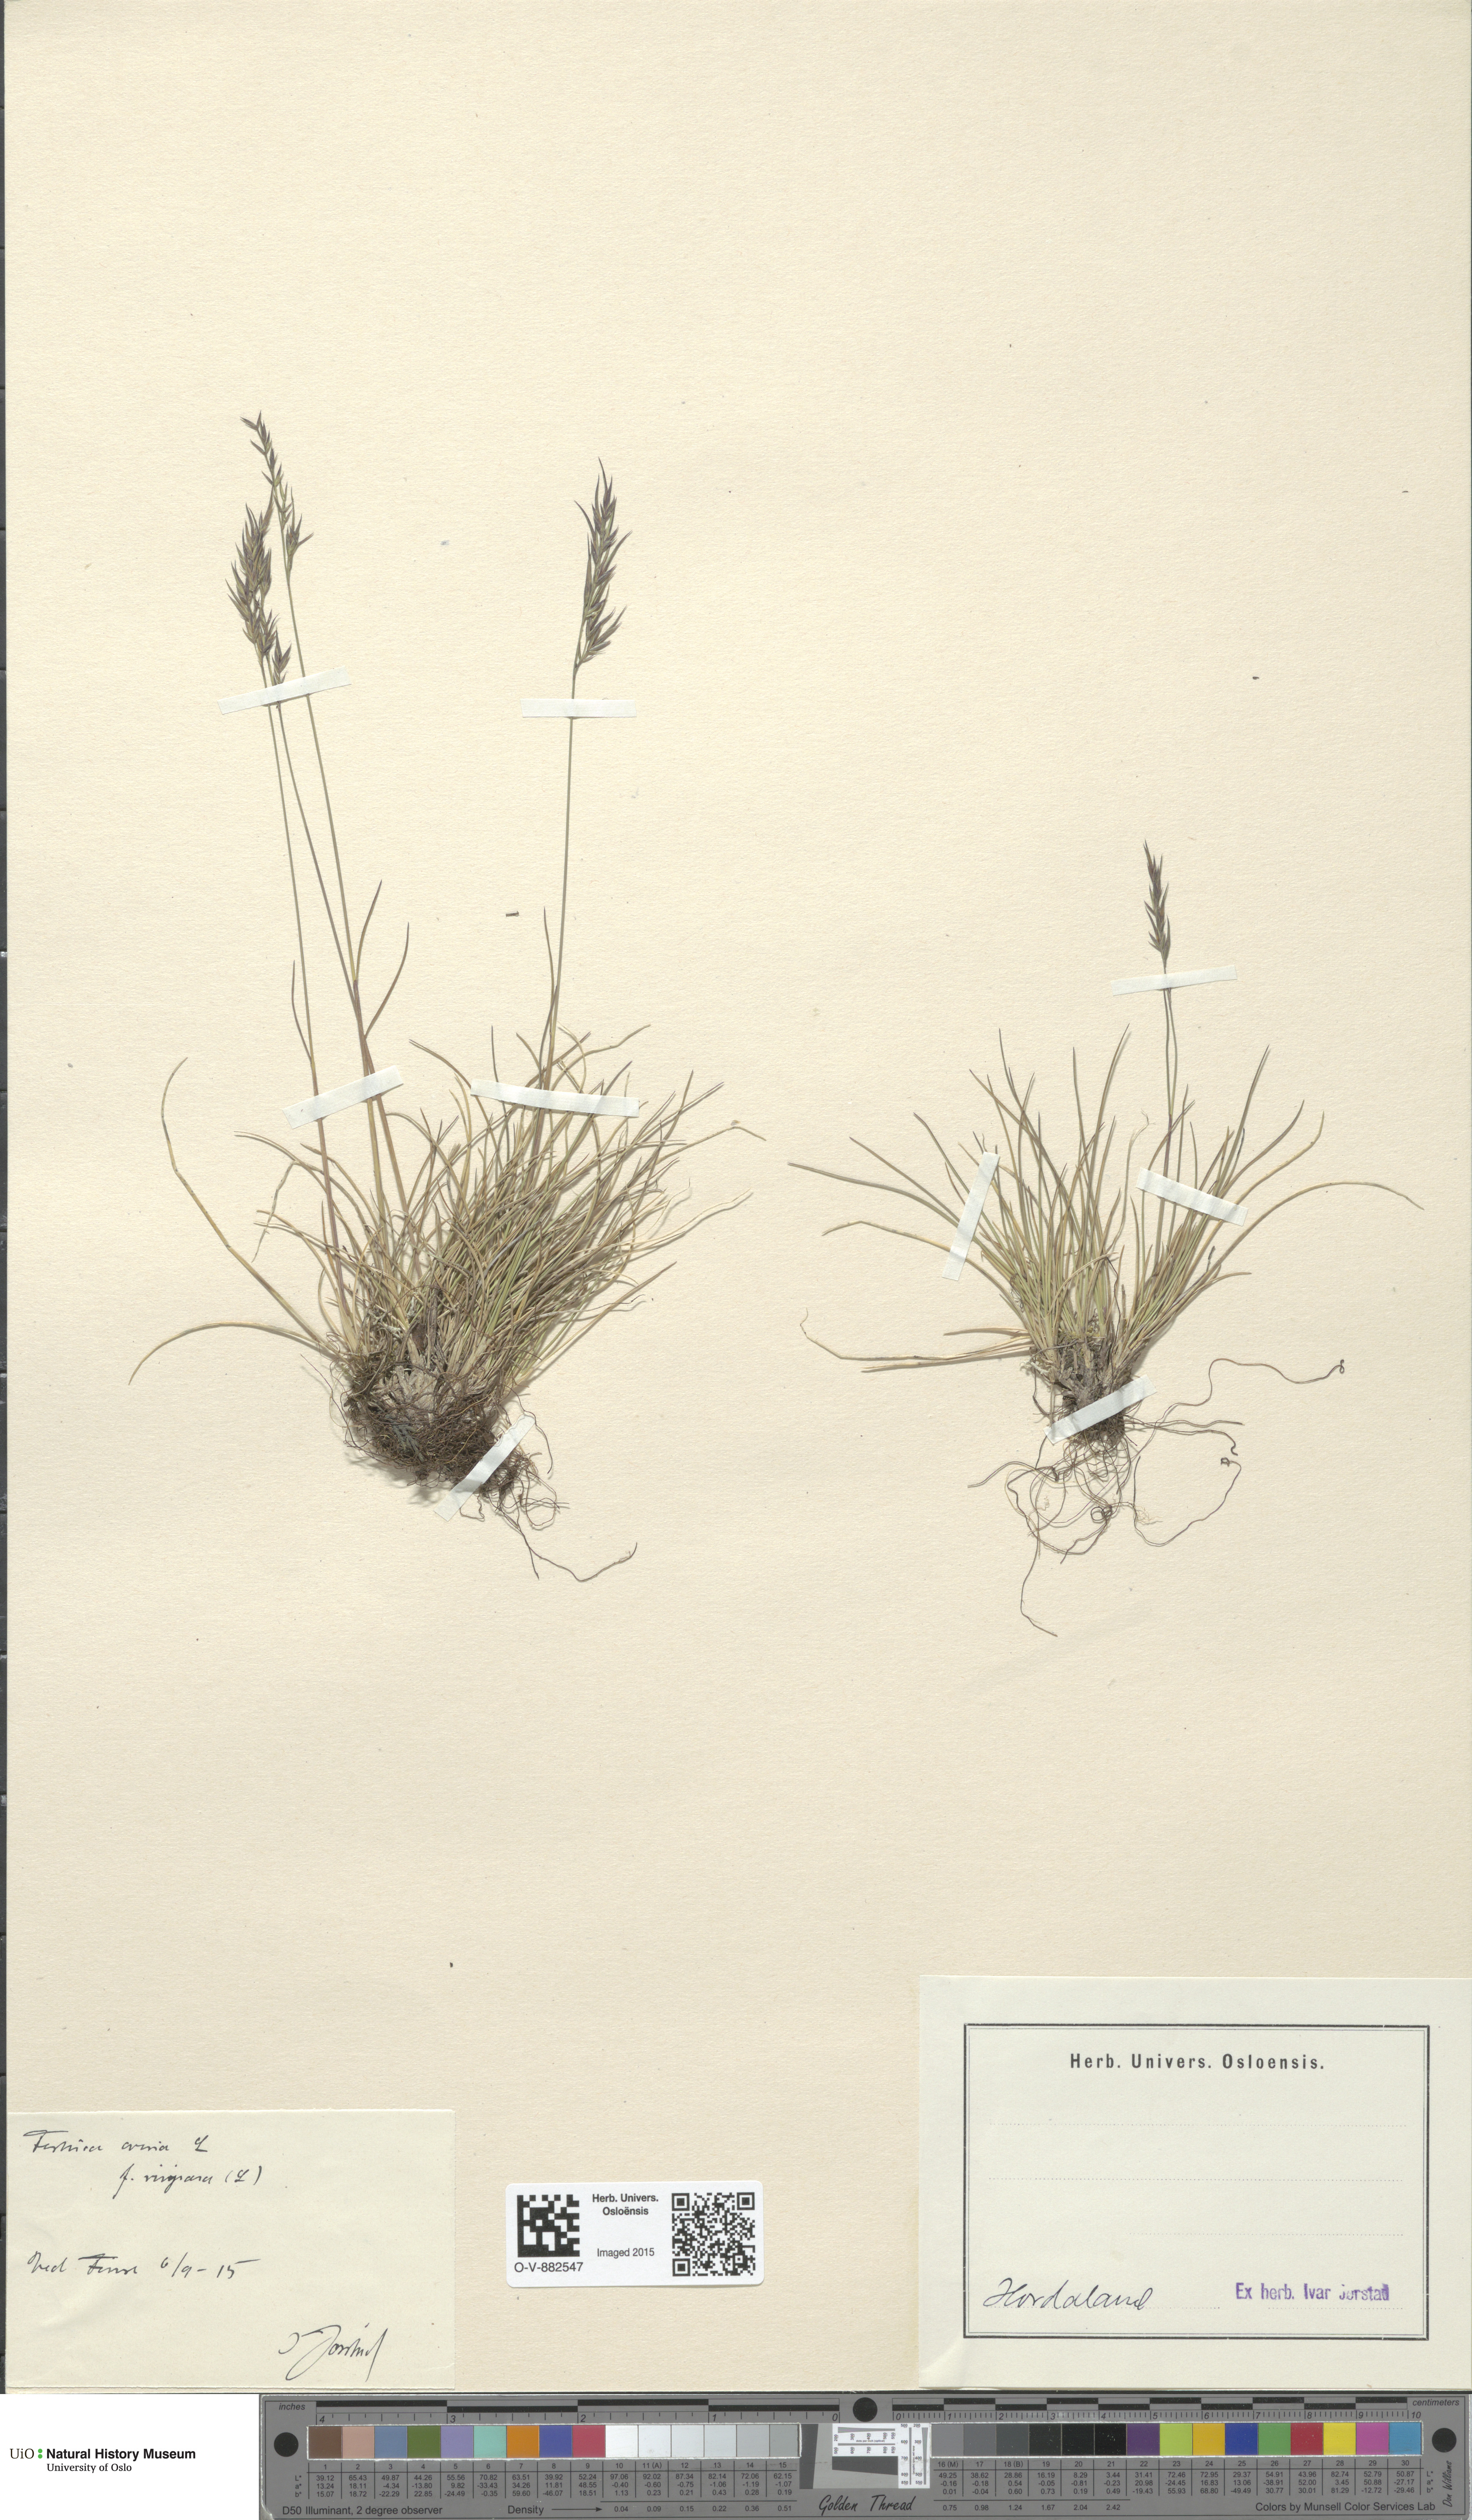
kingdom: Plantae
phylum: Tracheophyta
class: Liliopsida
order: Poales
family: Poaceae
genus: Festuca
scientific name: Festuca vivipara
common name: Viviparous sheep's-fescue
